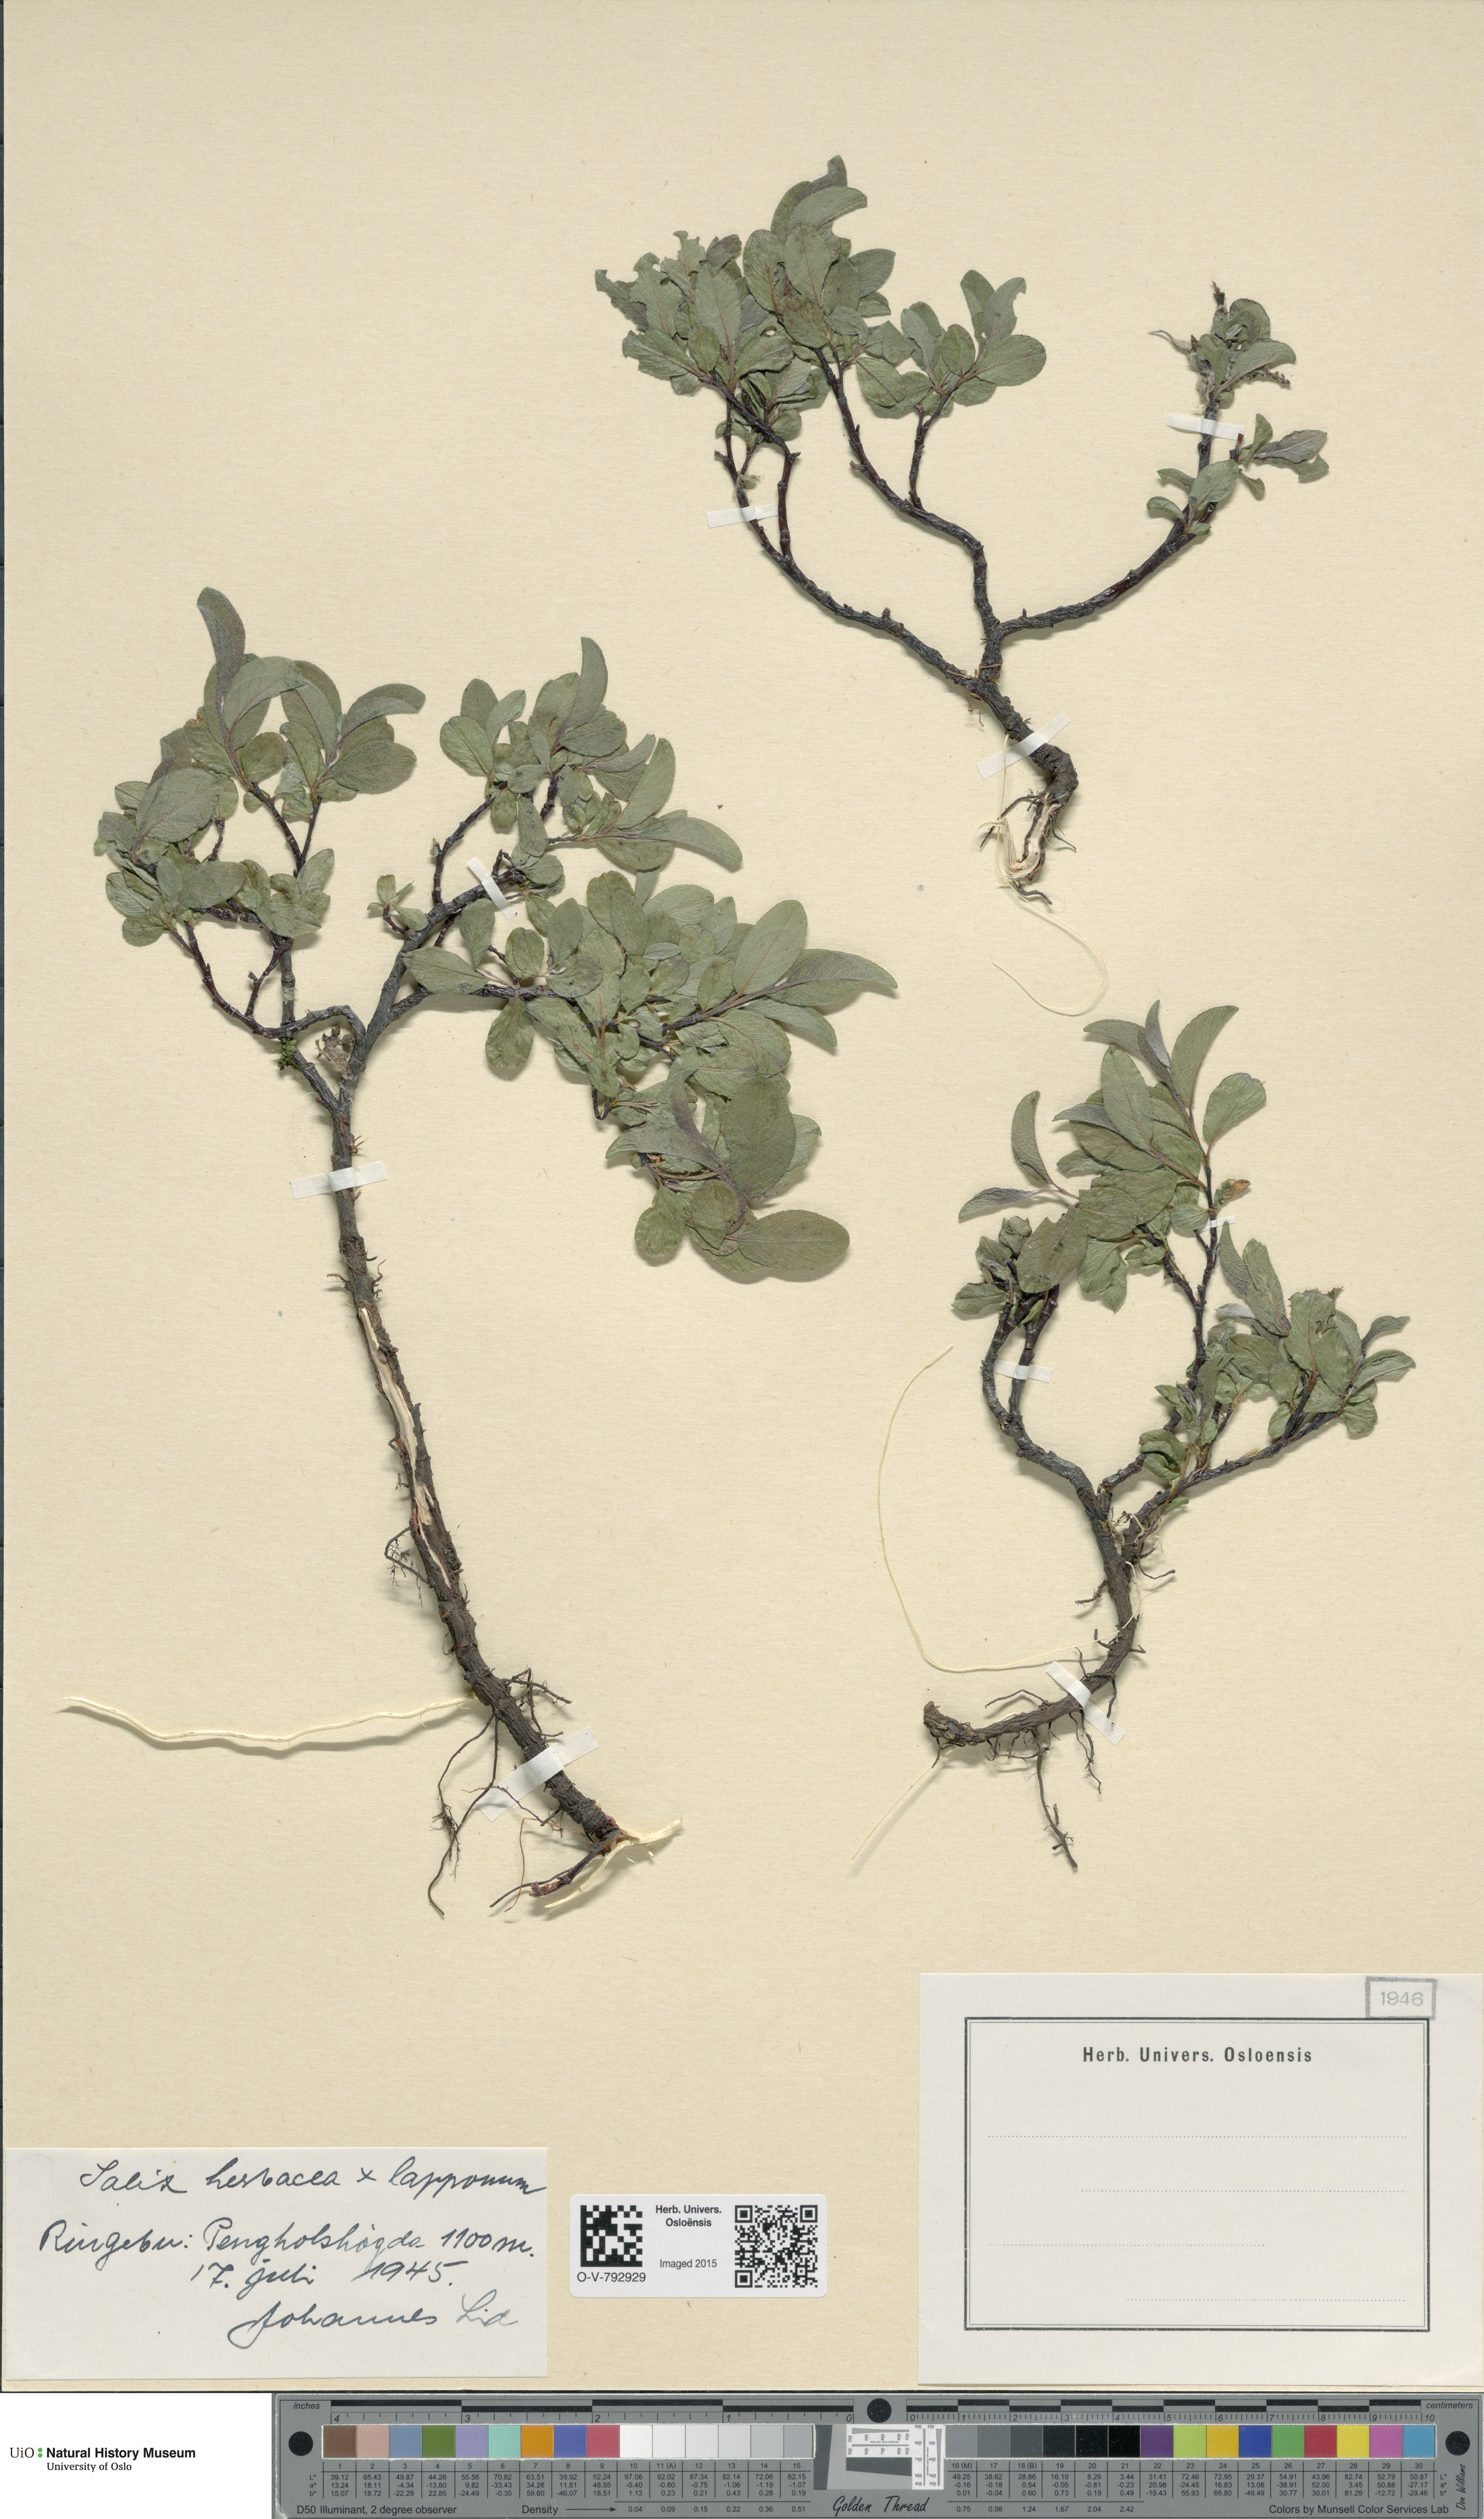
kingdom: Plantae
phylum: Tracheophyta
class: Magnoliopsida
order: Malpighiales
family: Salicaceae
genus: Salix
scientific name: Salix
